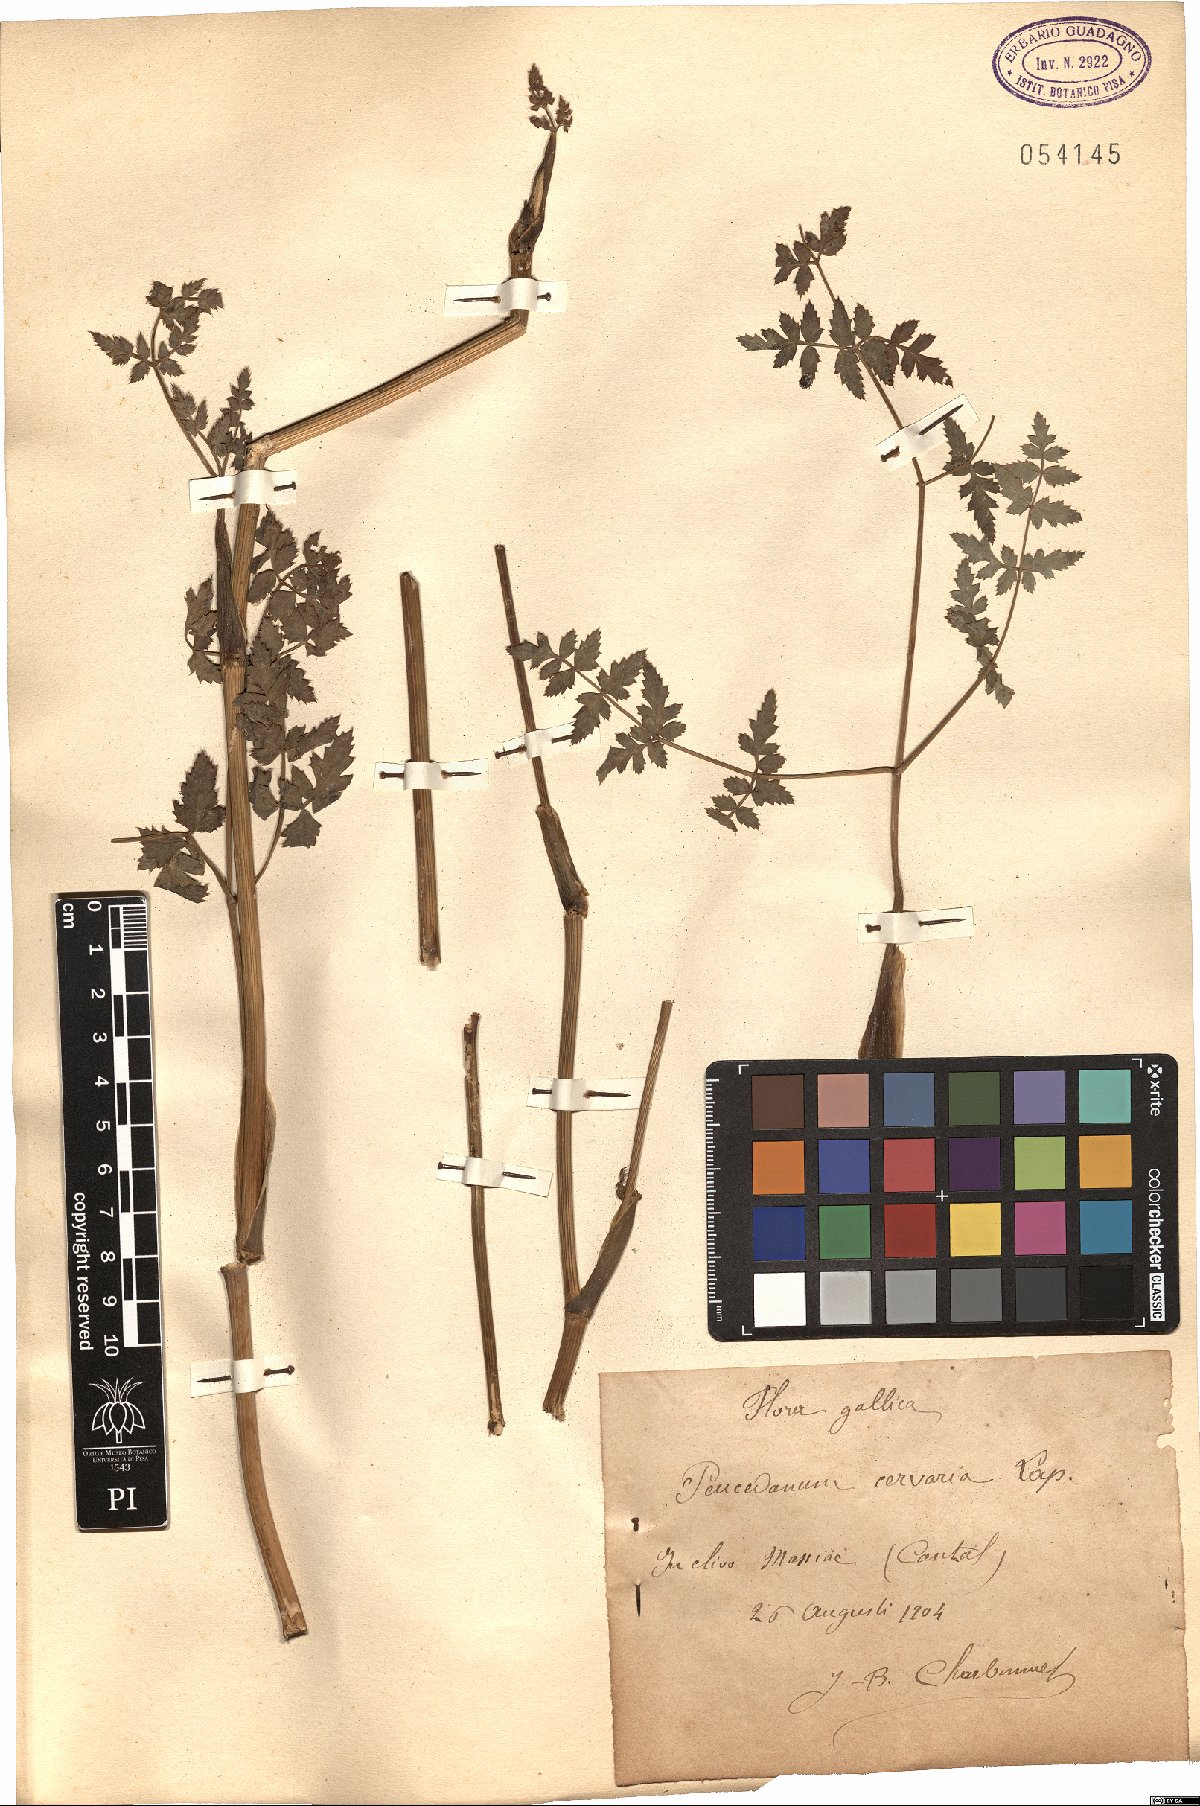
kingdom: Plantae
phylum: Tracheophyta
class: Magnoliopsida
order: Apiales
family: Apiaceae
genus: Cervaria
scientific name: Cervaria rivini
